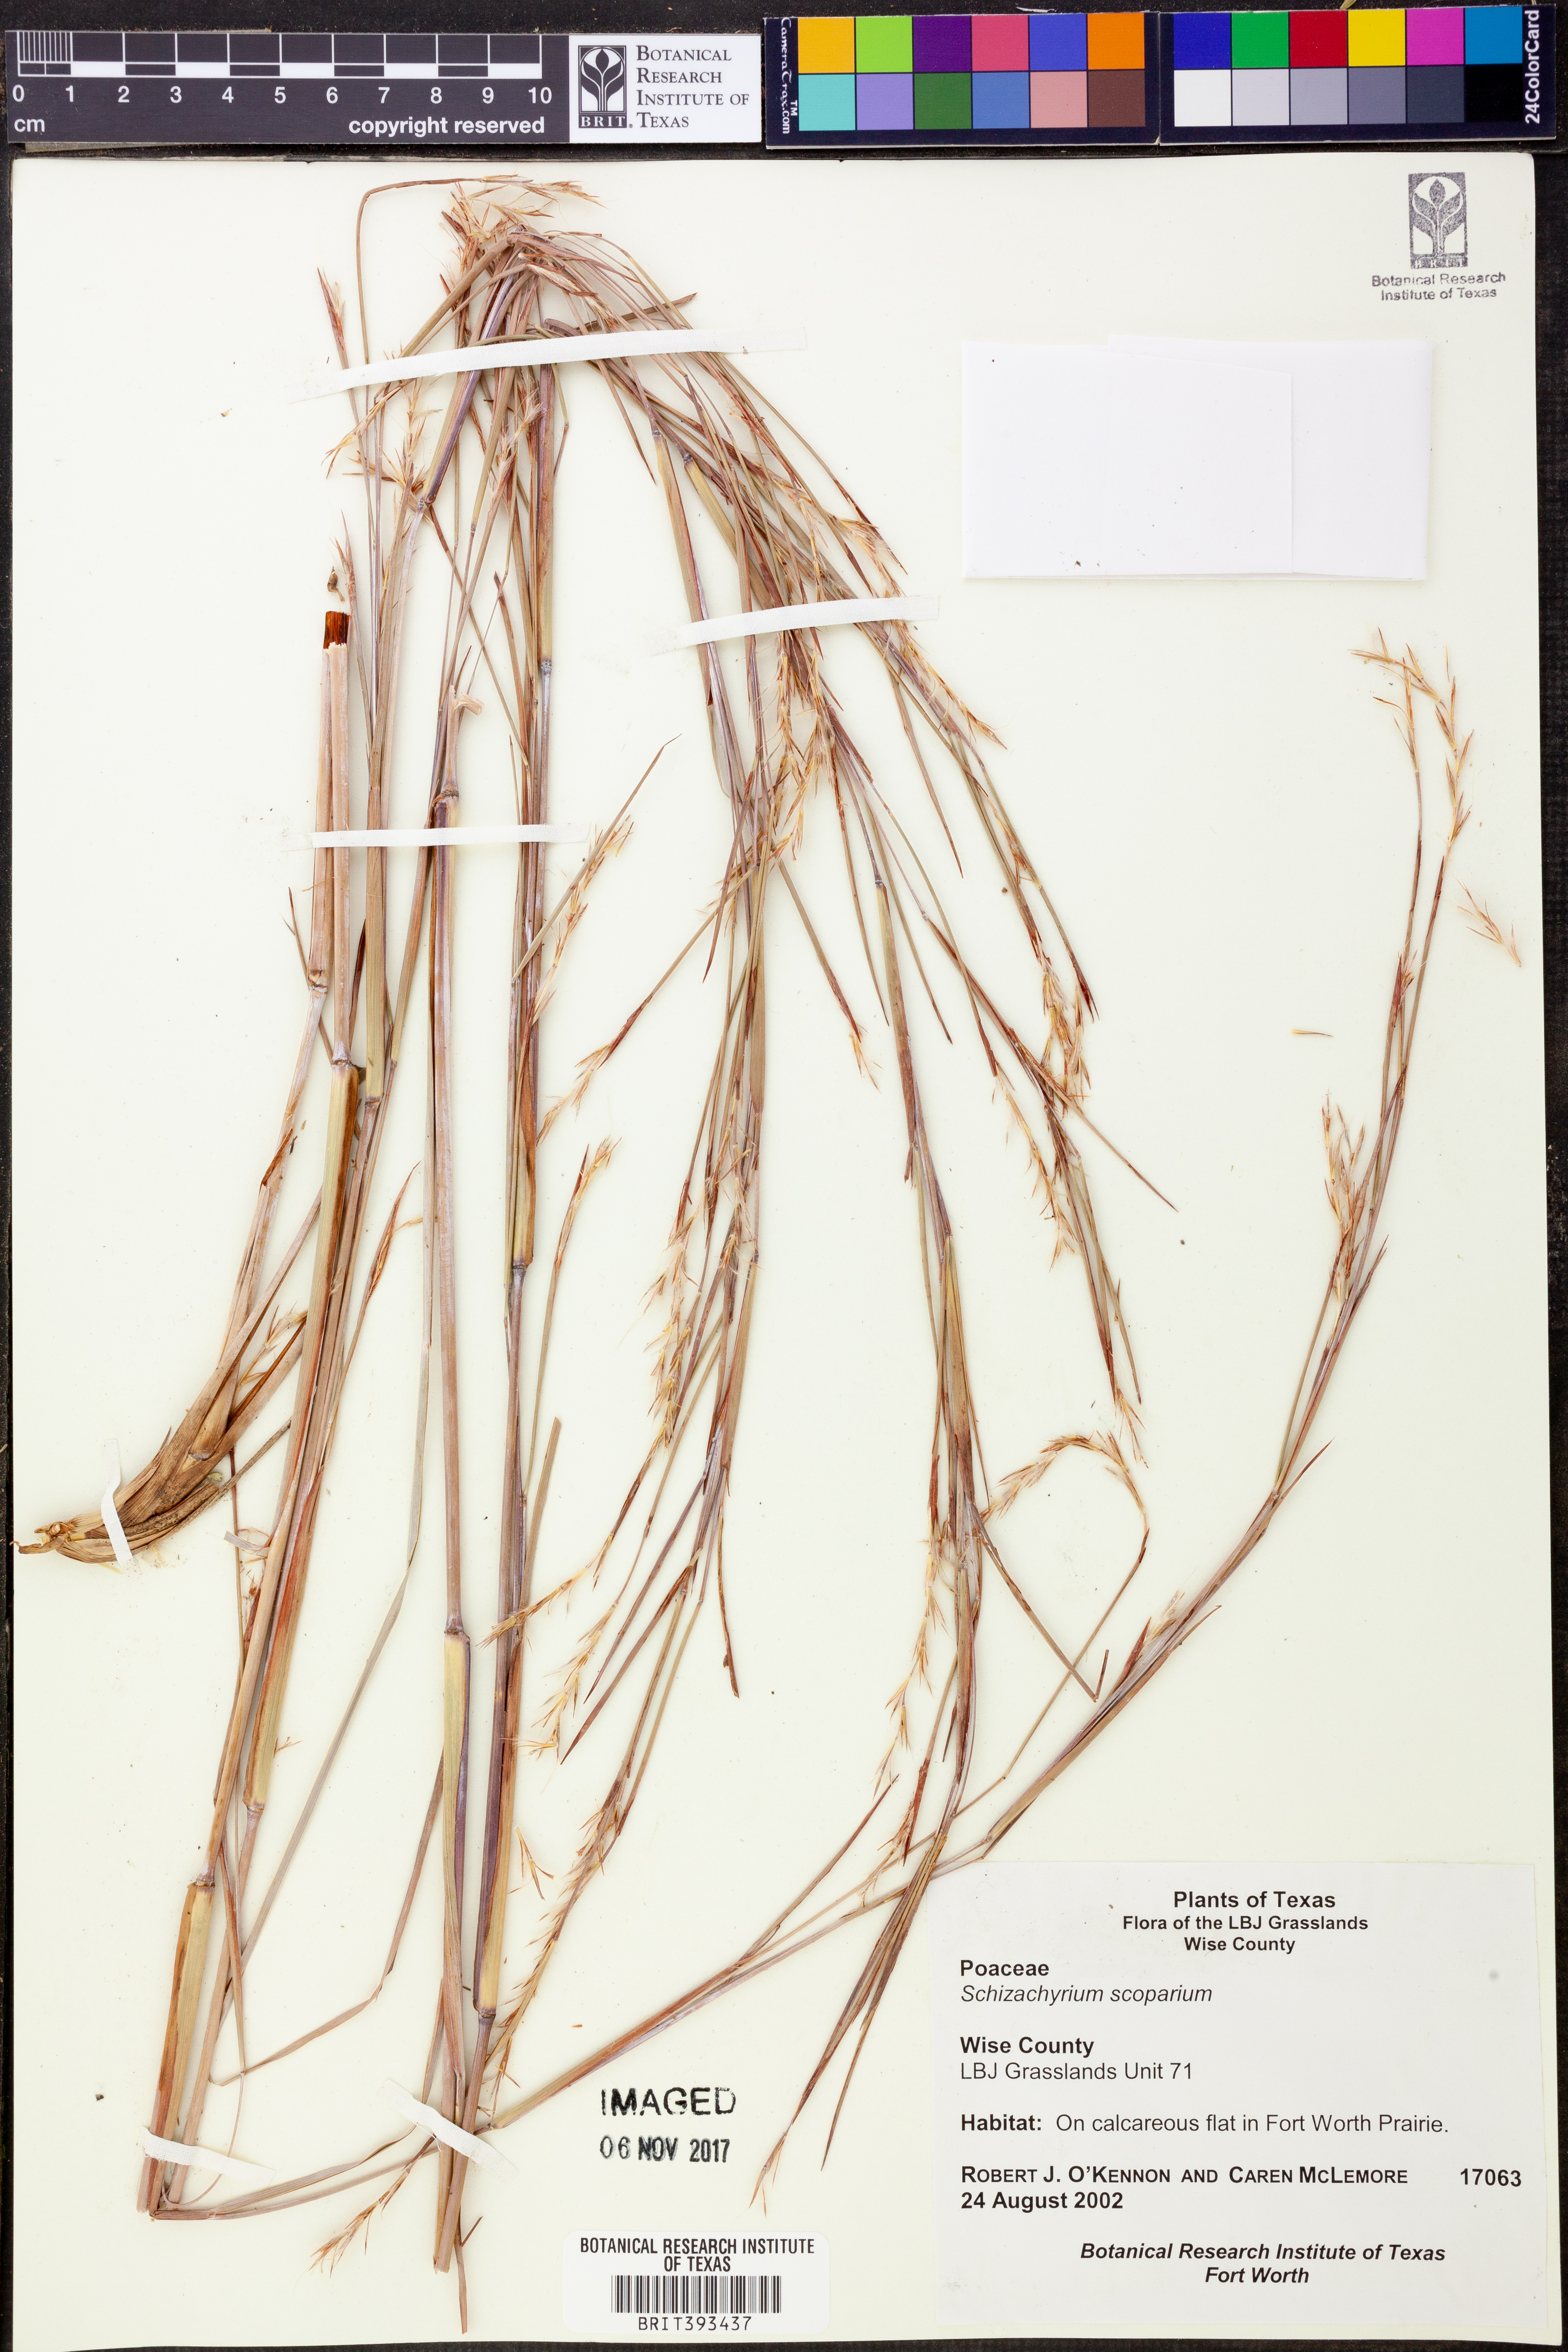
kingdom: Plantae
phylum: Tracheophyta
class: Liliopsida
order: Poales
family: Poaceae
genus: Schizachyrium
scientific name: Schizachyrium scoparium
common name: Little bluestem
